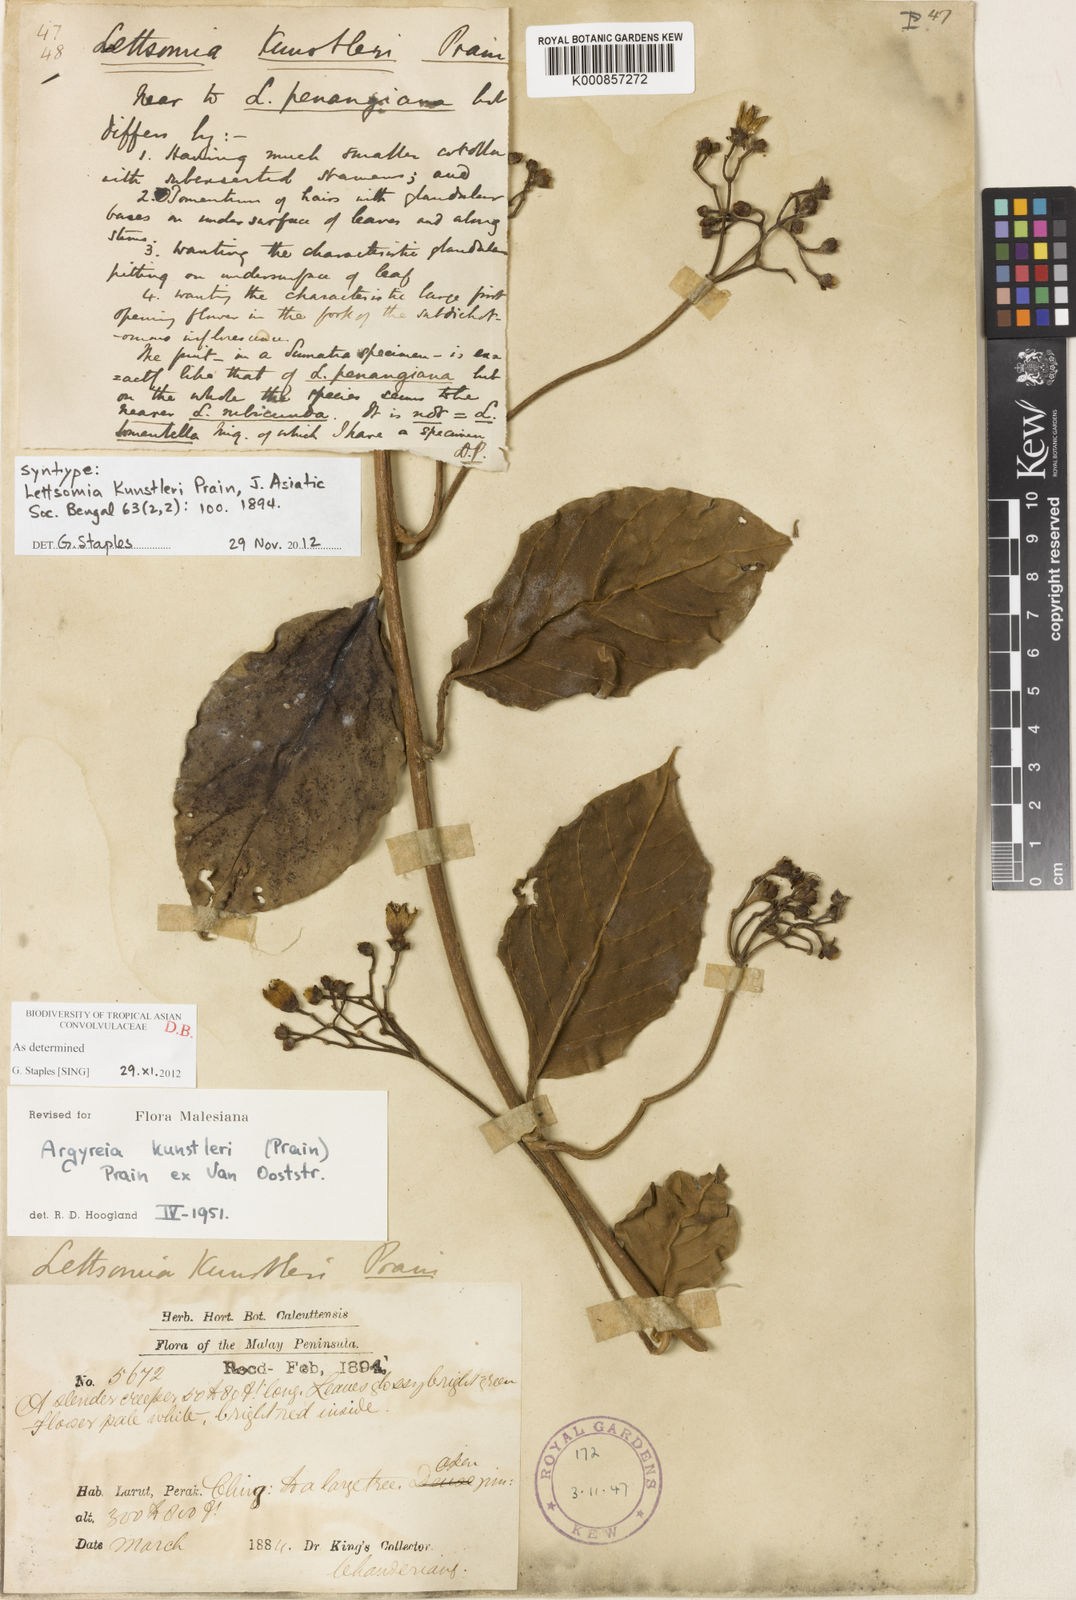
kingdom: Plantae
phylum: Tracheophyta
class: Magnoliopsida
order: Solanales
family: Convolvulaceae
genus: Argyreia
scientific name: Argyreia kunstleri
